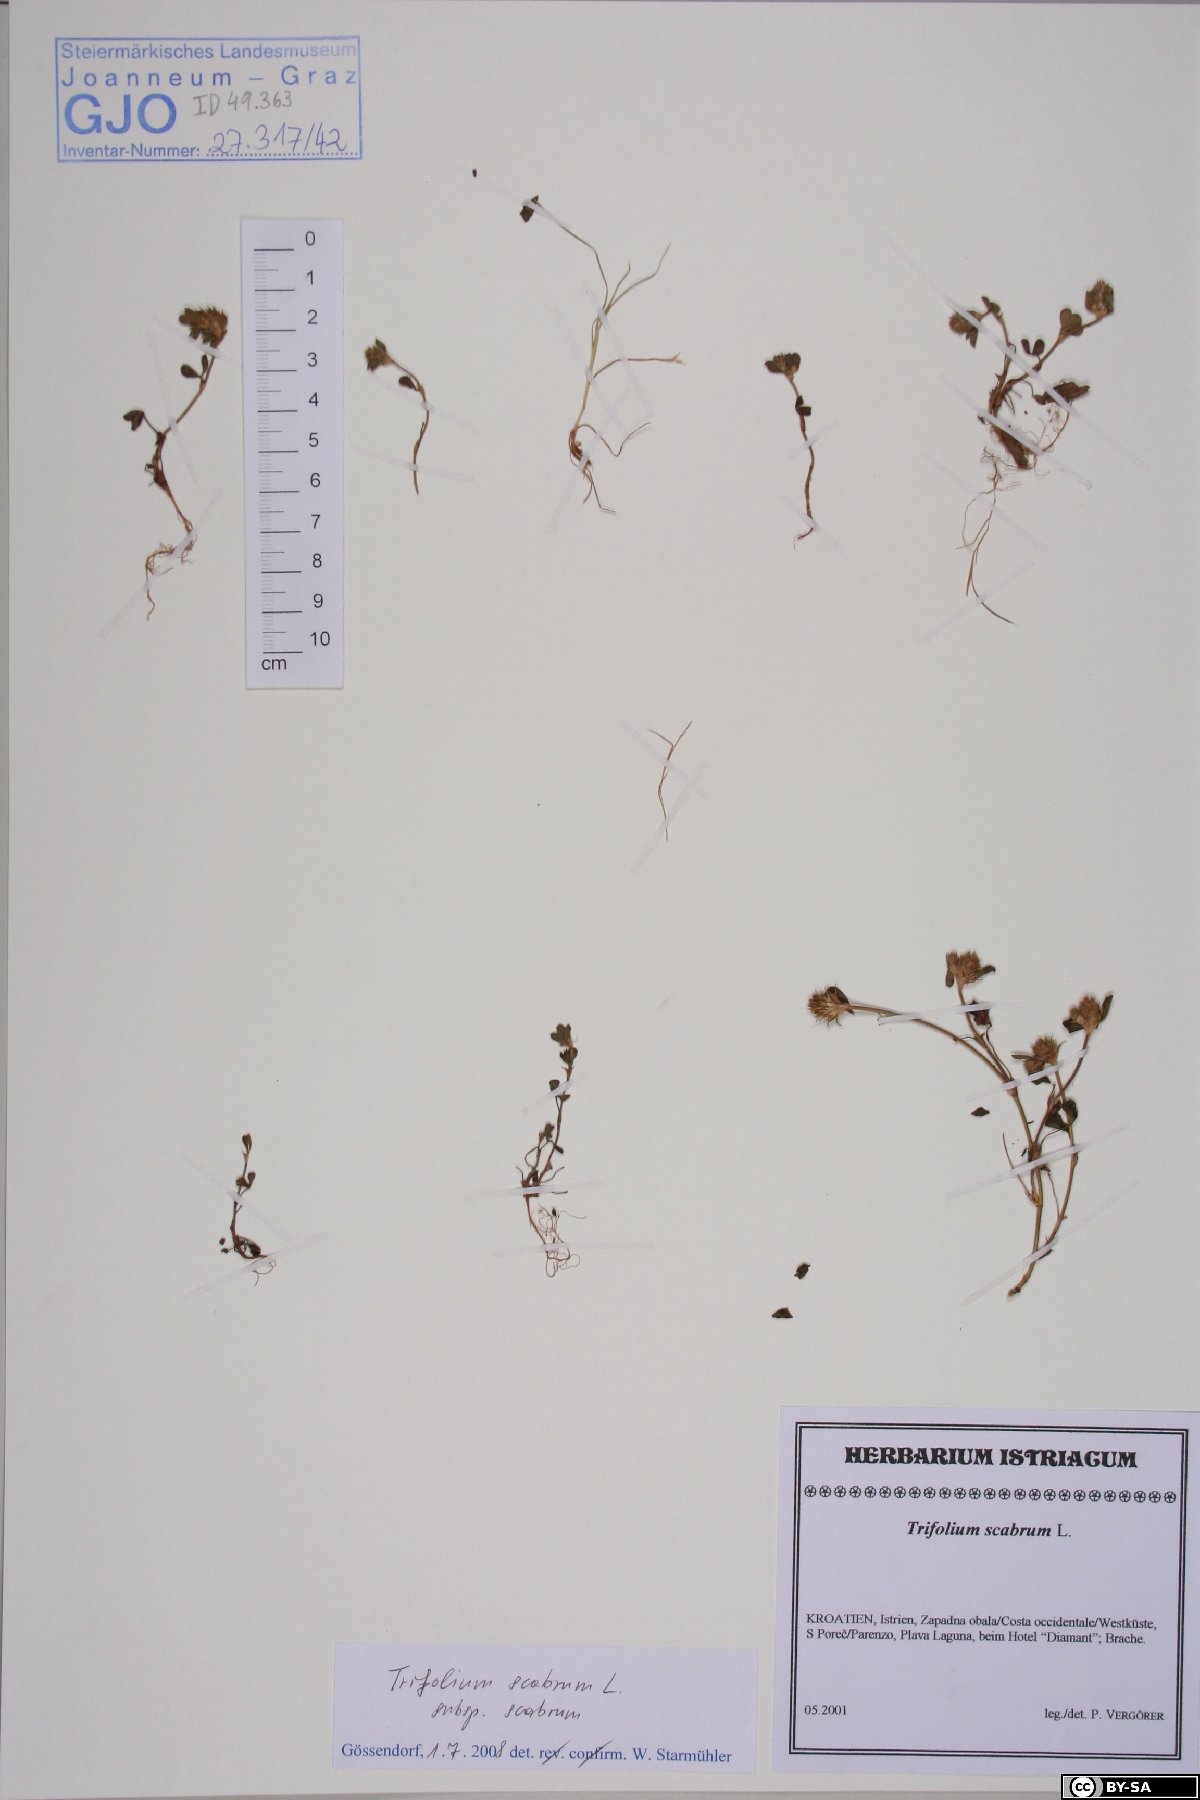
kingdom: Plantae
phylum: Tracheophyta
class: Magnoliopsida
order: Fabales
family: Fabaceae
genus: Trifolium
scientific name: Trifolium scabrum
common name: Rough clover
